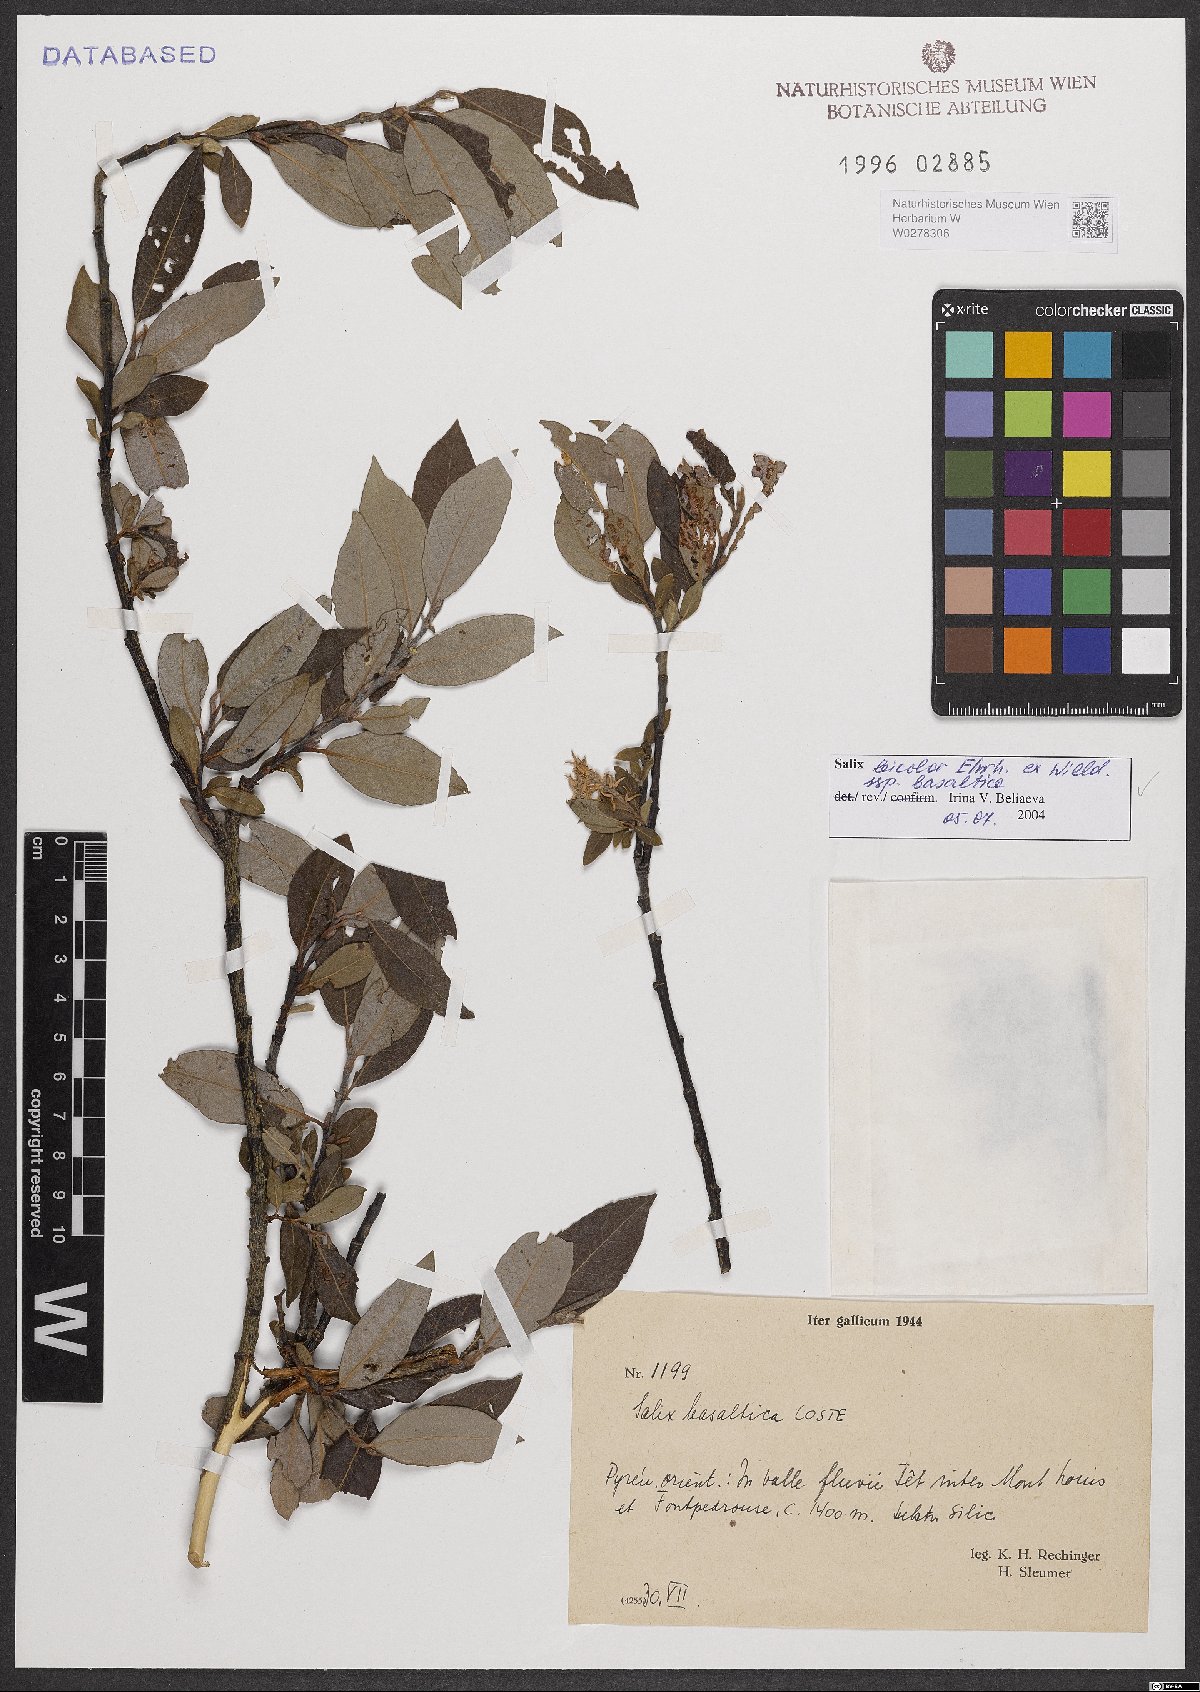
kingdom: Plantae
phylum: Tracheophyta
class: Magnoliopsida
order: Malpighiales
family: Salicaceae
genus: Salix
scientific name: Salix basaltica
